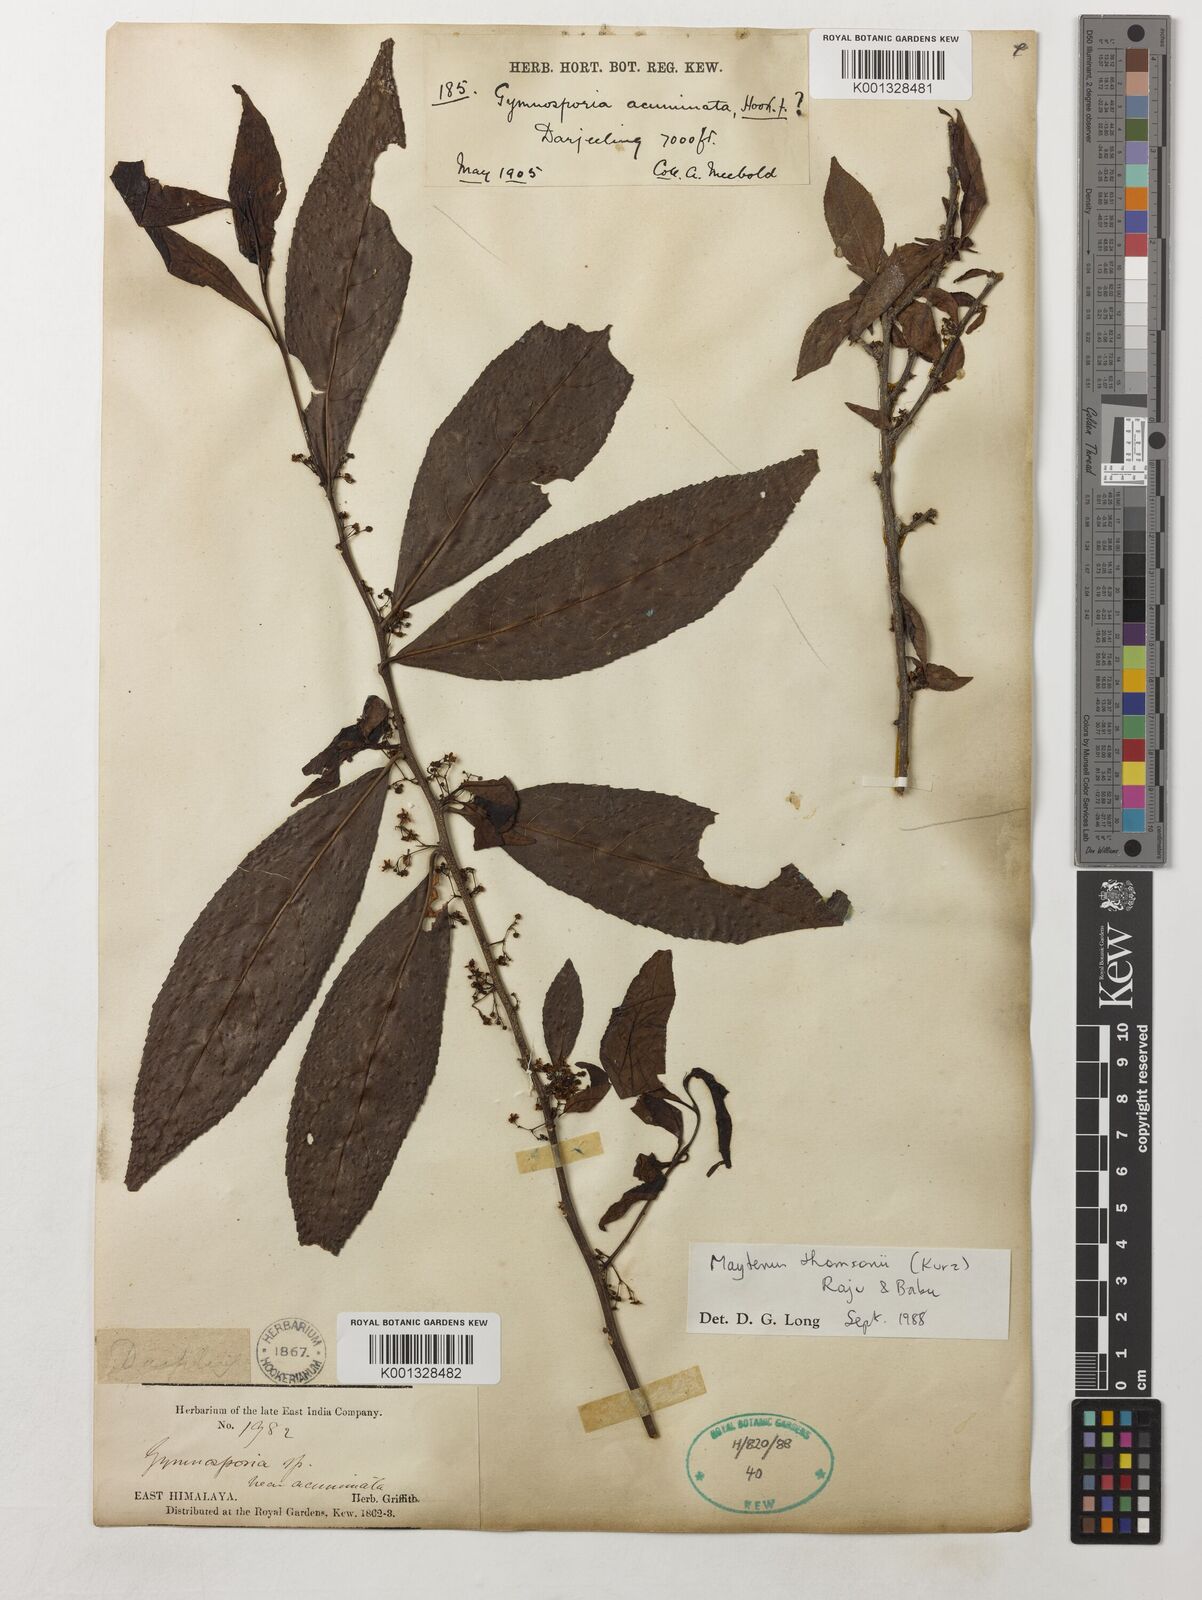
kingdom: Plantae
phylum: Tracheophyta
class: Magnoliopsida
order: Celastrales
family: Celastraceae
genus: Gymnosporia
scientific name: Gymnosporia oxyphylla
